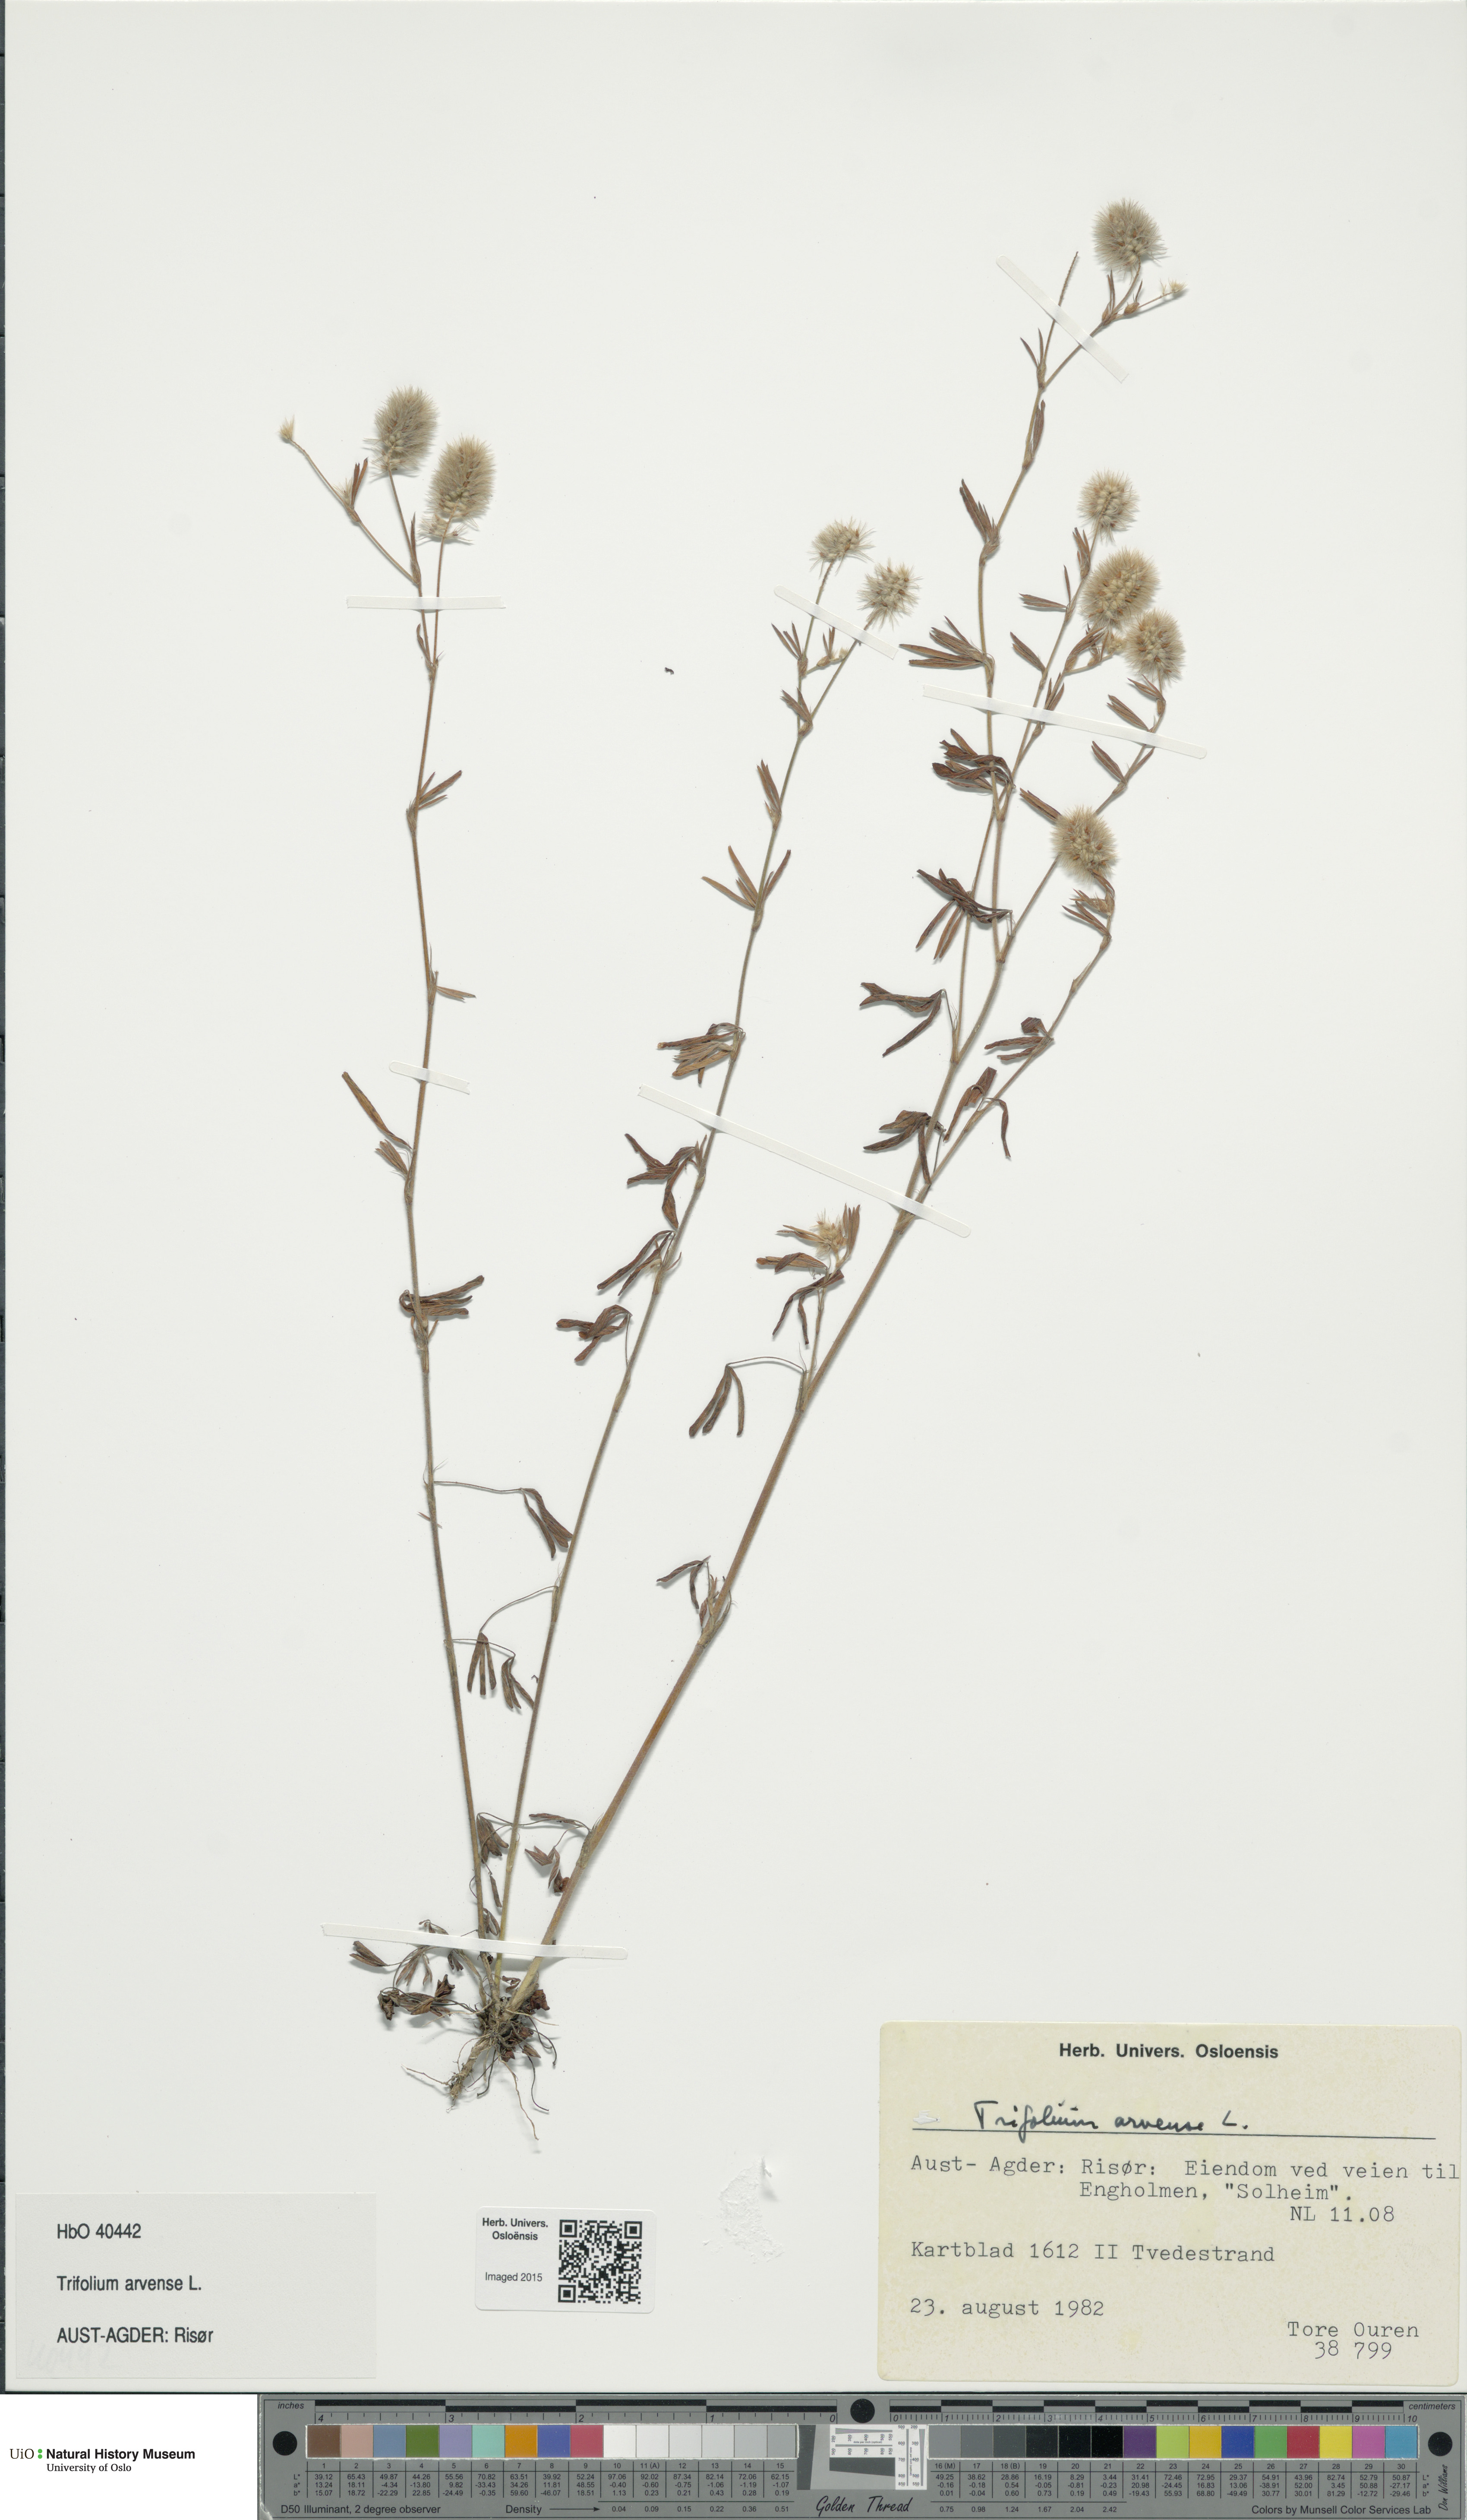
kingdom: Plantae
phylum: Tracheophyta
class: Magnoliopsida
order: Fabales
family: Fabaceae
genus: Trifolium
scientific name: Trifolium arvense
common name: Hare's-foot clover
